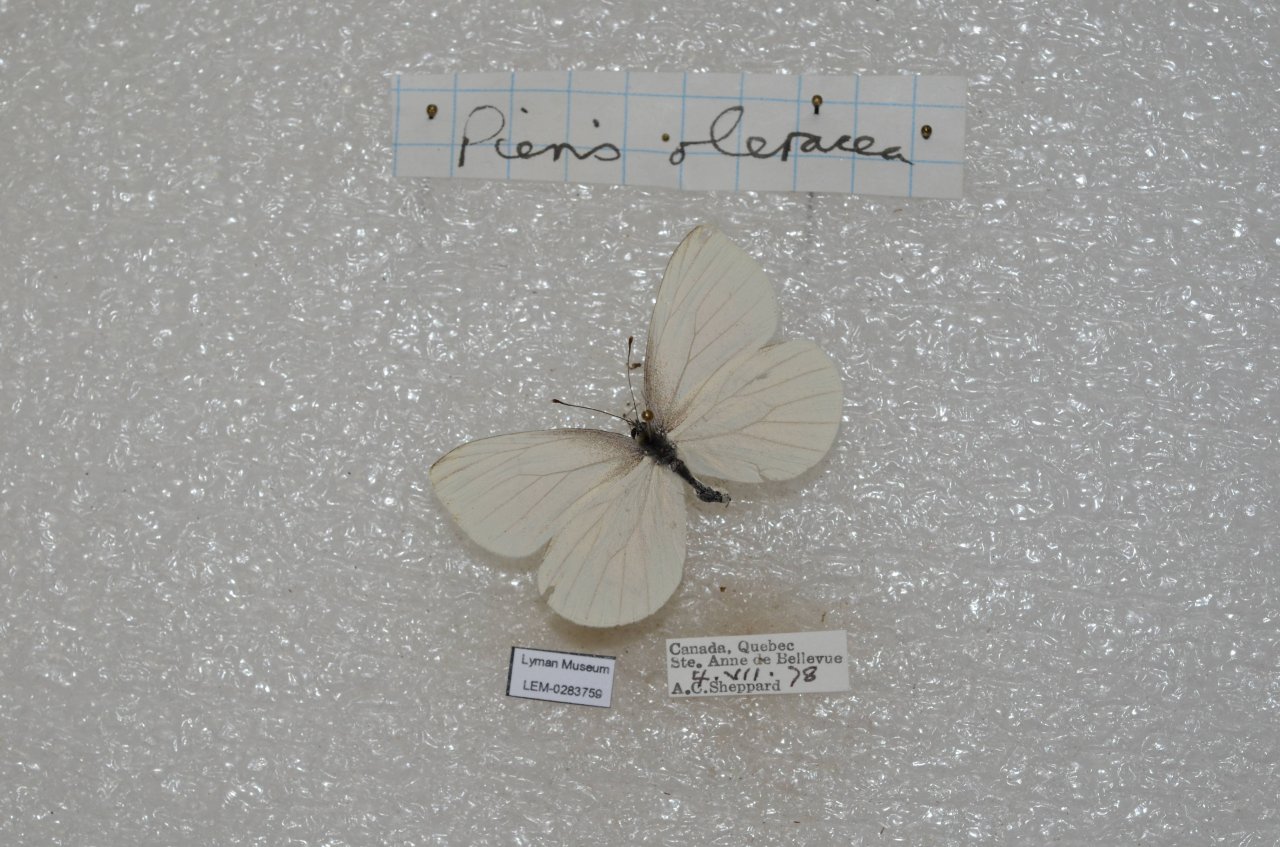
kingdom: Animalia
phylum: Arthropoda
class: Insecta
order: Lepidoptera
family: Pieridae
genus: Pieris
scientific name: Pieris oleracea
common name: Mustard White
